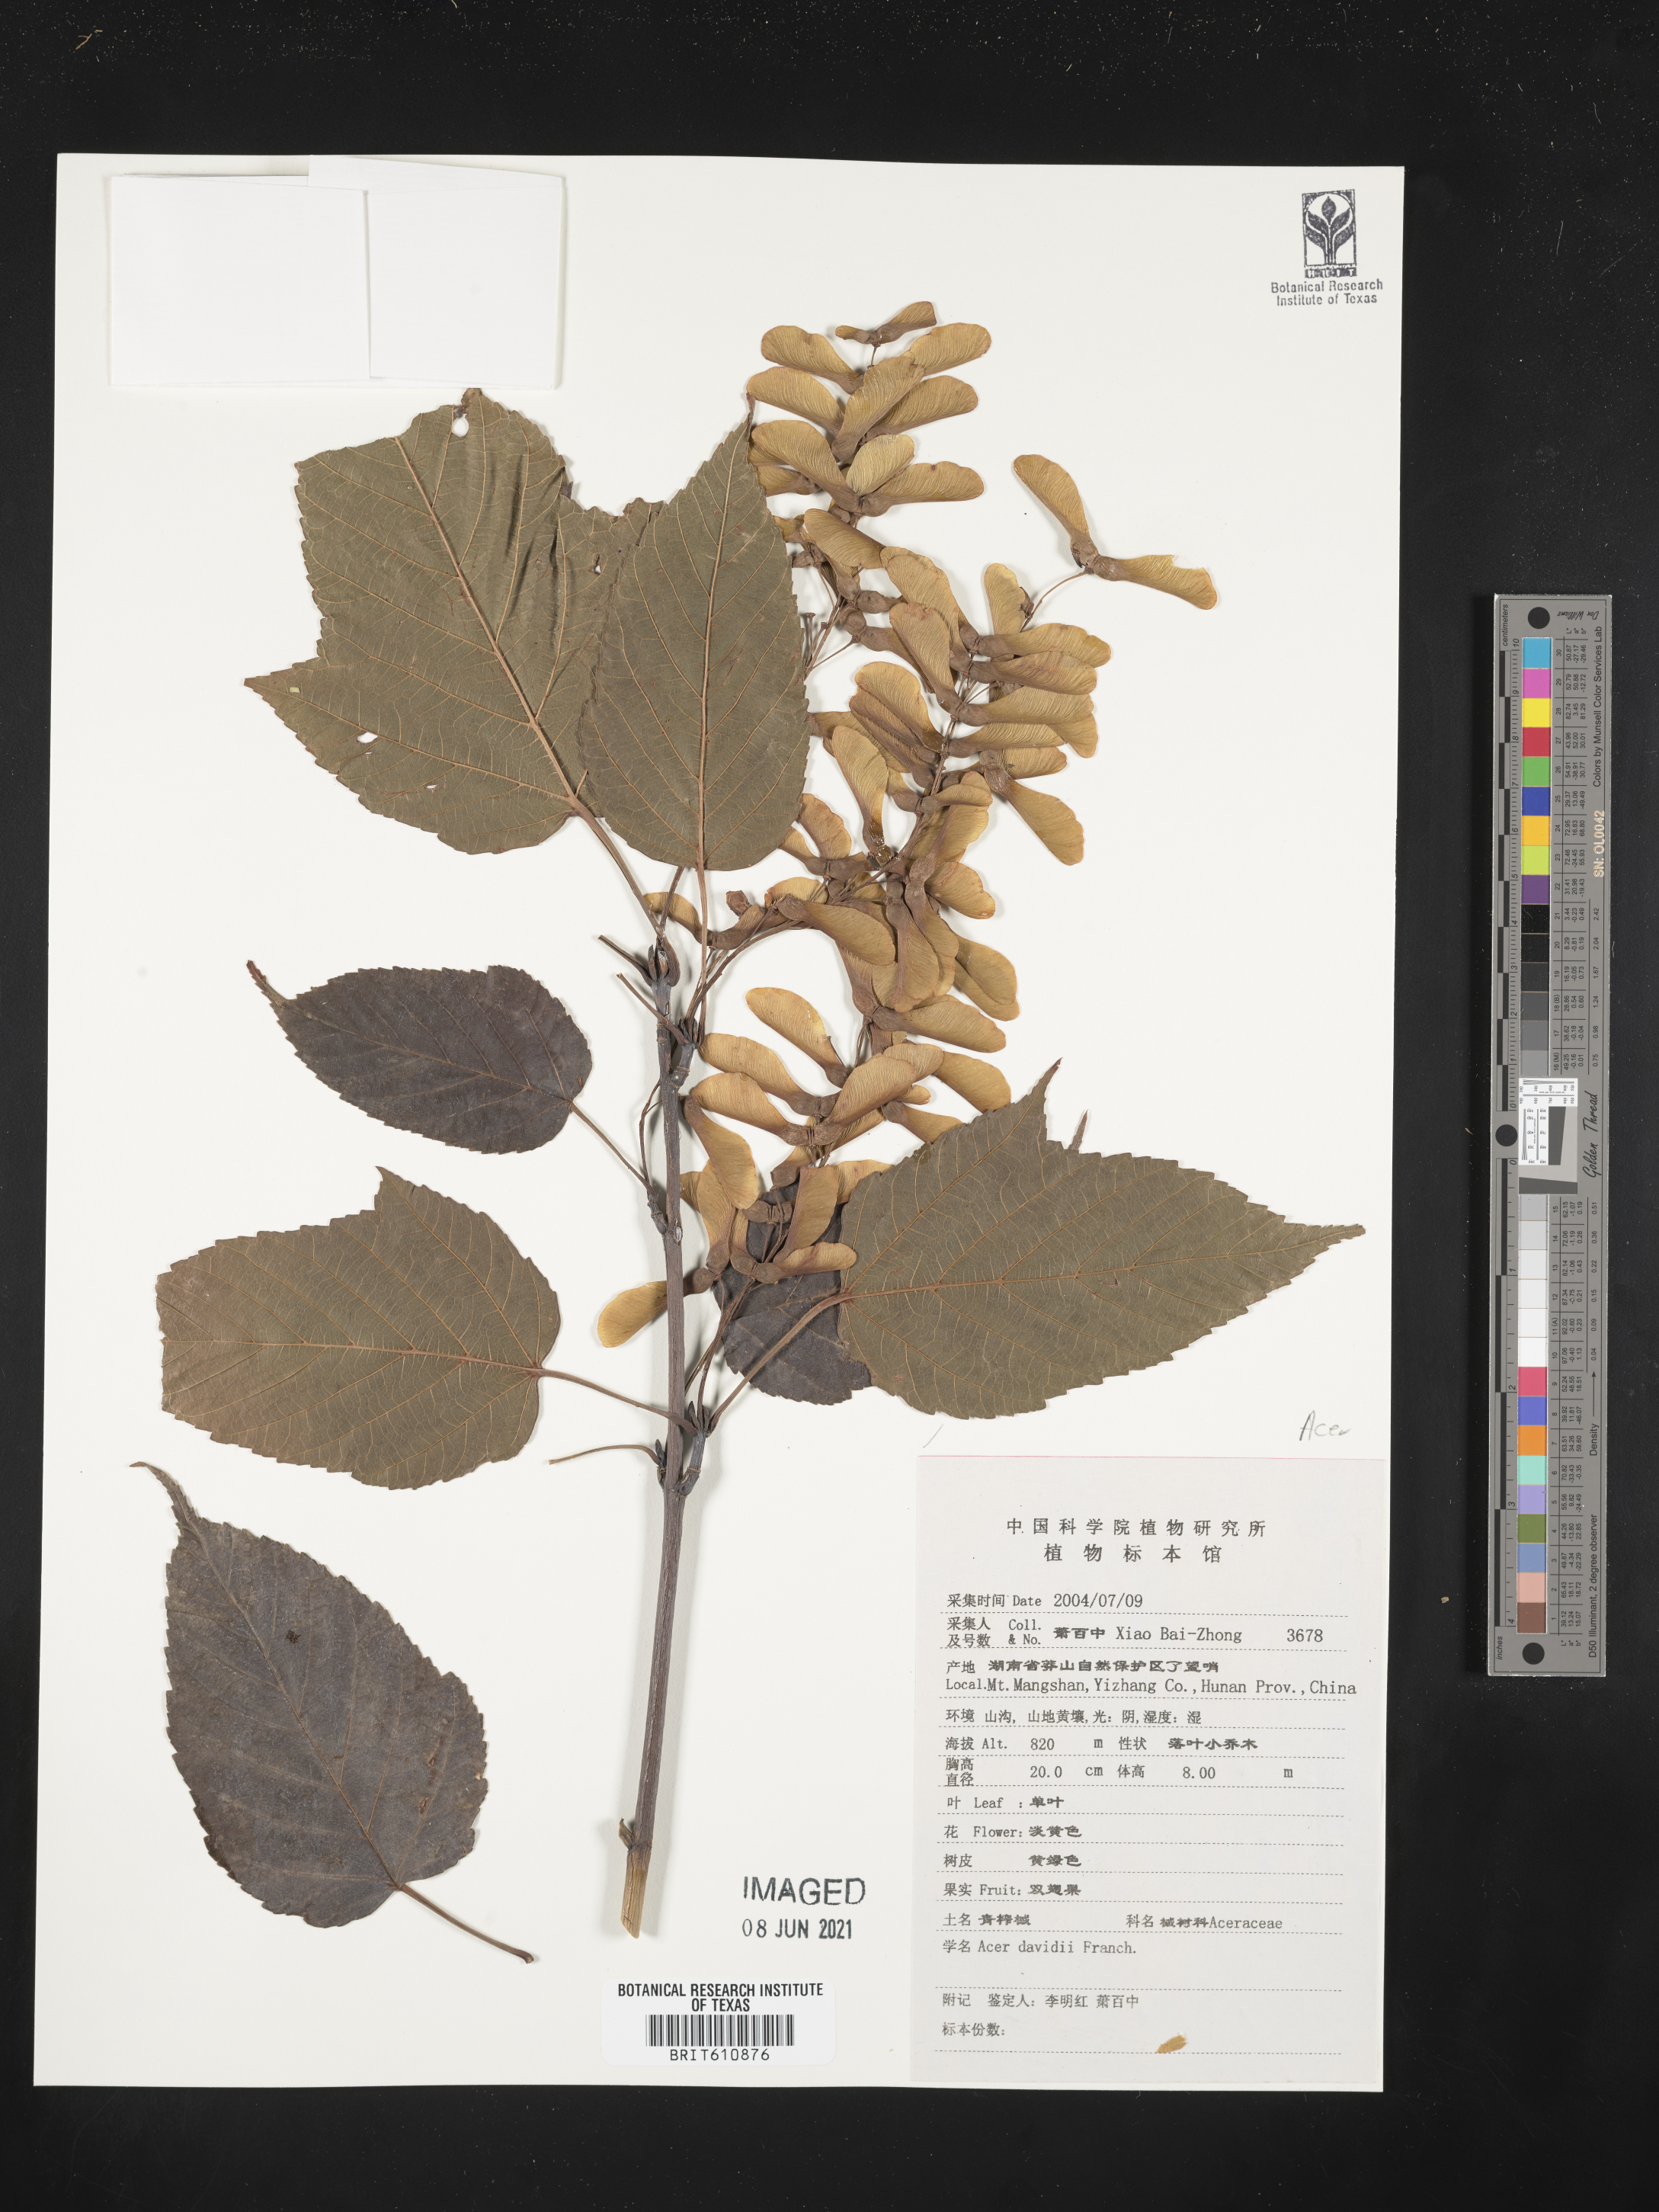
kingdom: Plantae
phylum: Tracheophyta
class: Magnoliopsida
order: Sapindales
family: Sapindaceae
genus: Acer
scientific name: Acer davidii
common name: Father david's maple
